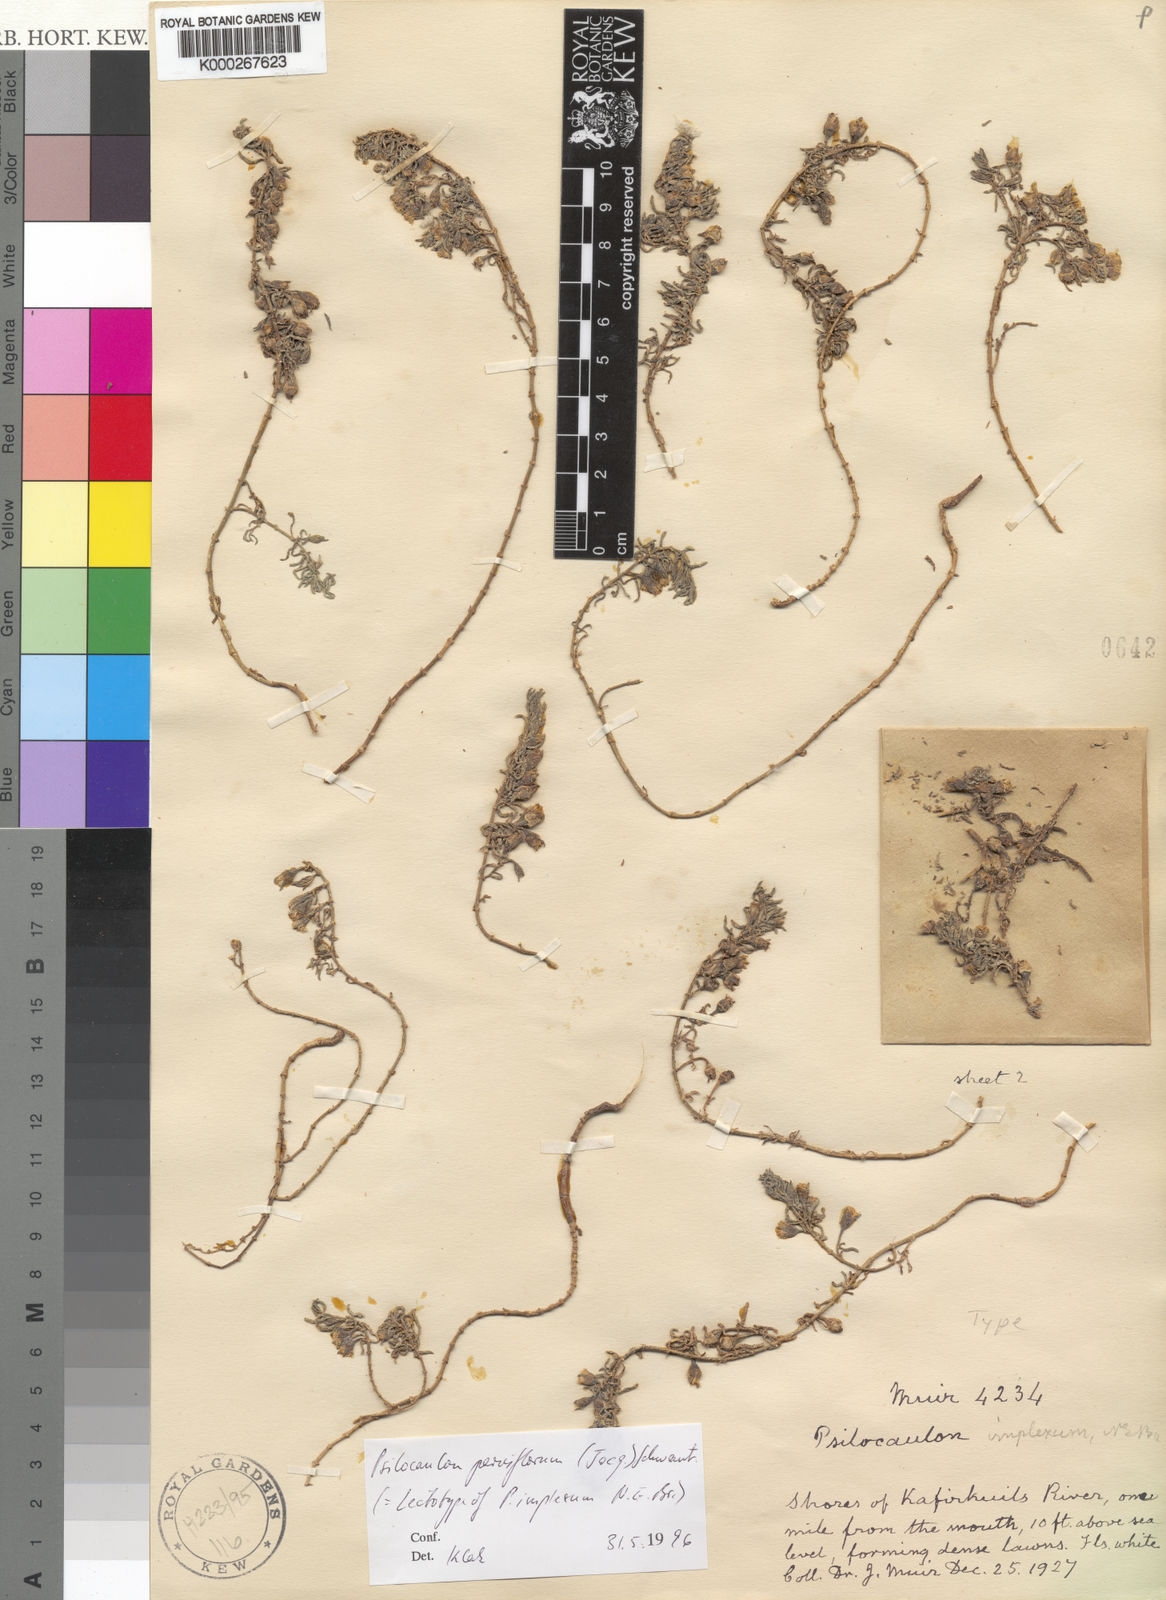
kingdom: Plantae
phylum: Tracheophyta
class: Magnoliopsida
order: Caryophyllales
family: Aizoaceae
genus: Mesembryanthemum
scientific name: Mesembryanthemum parviflorum
